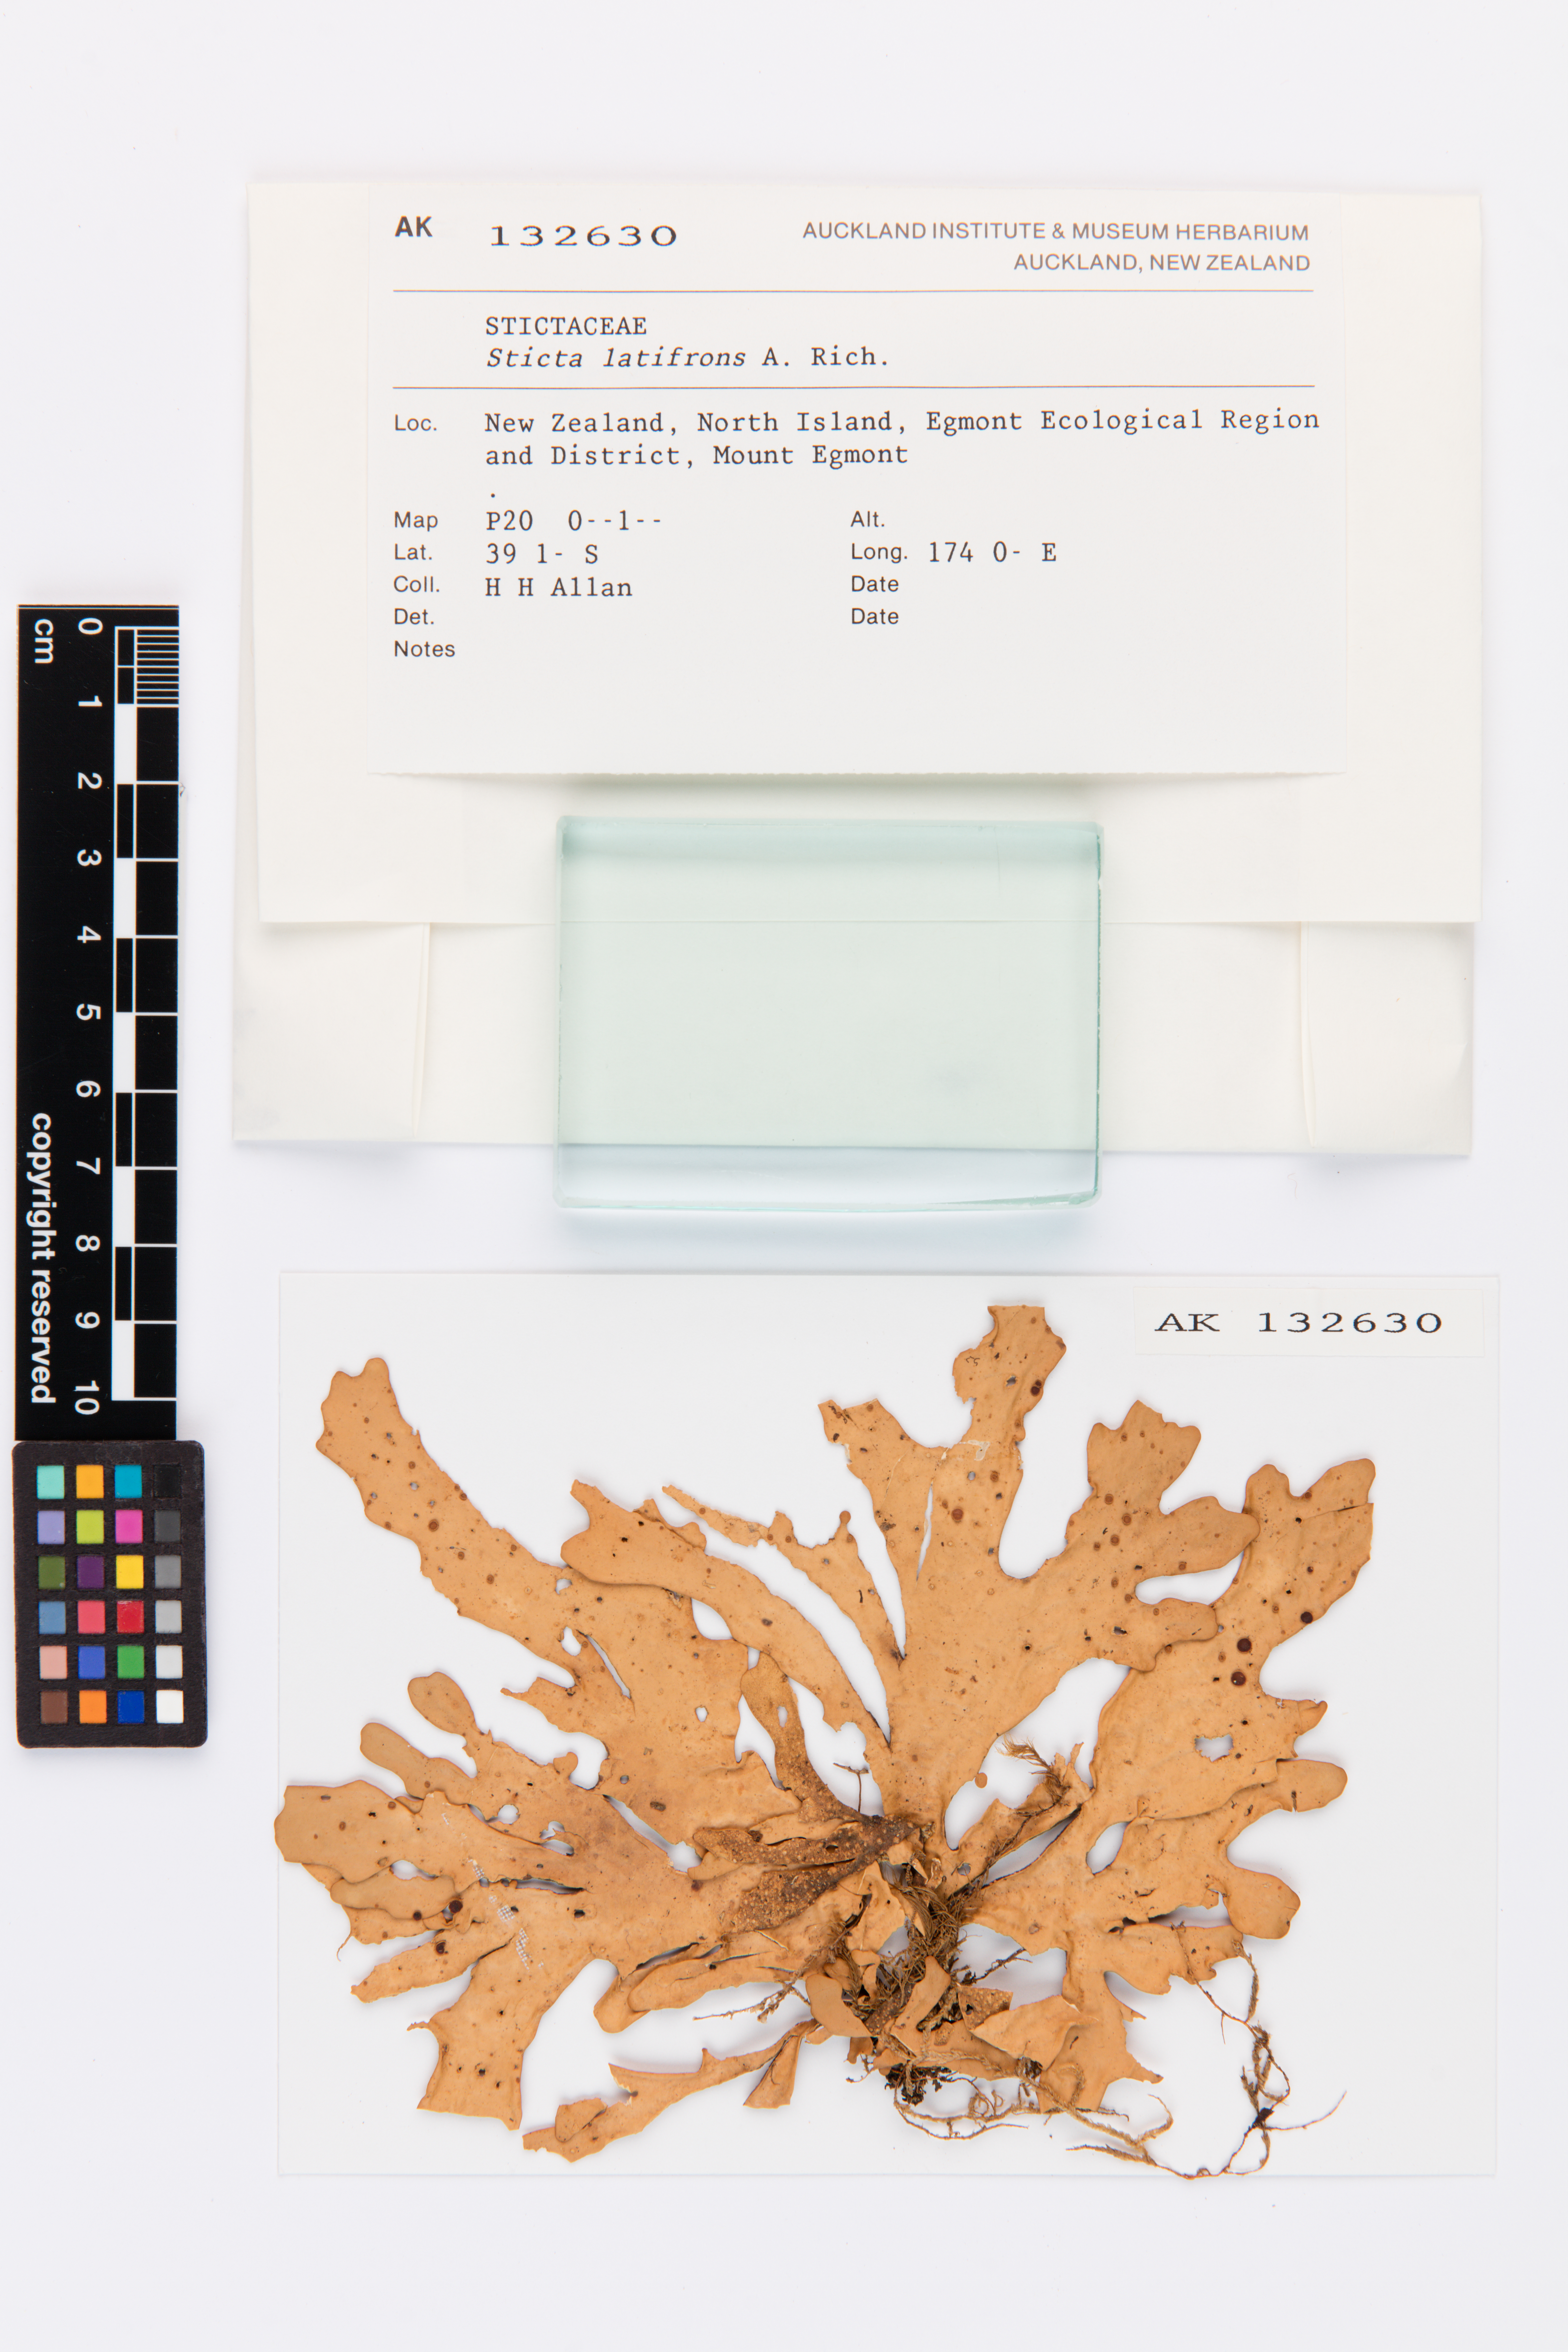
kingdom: Fungi
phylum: Ascomycota
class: Lecanoromycetes
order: Peltigerales
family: Lobariaceae
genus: Sticta
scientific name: Sticta latifrons
